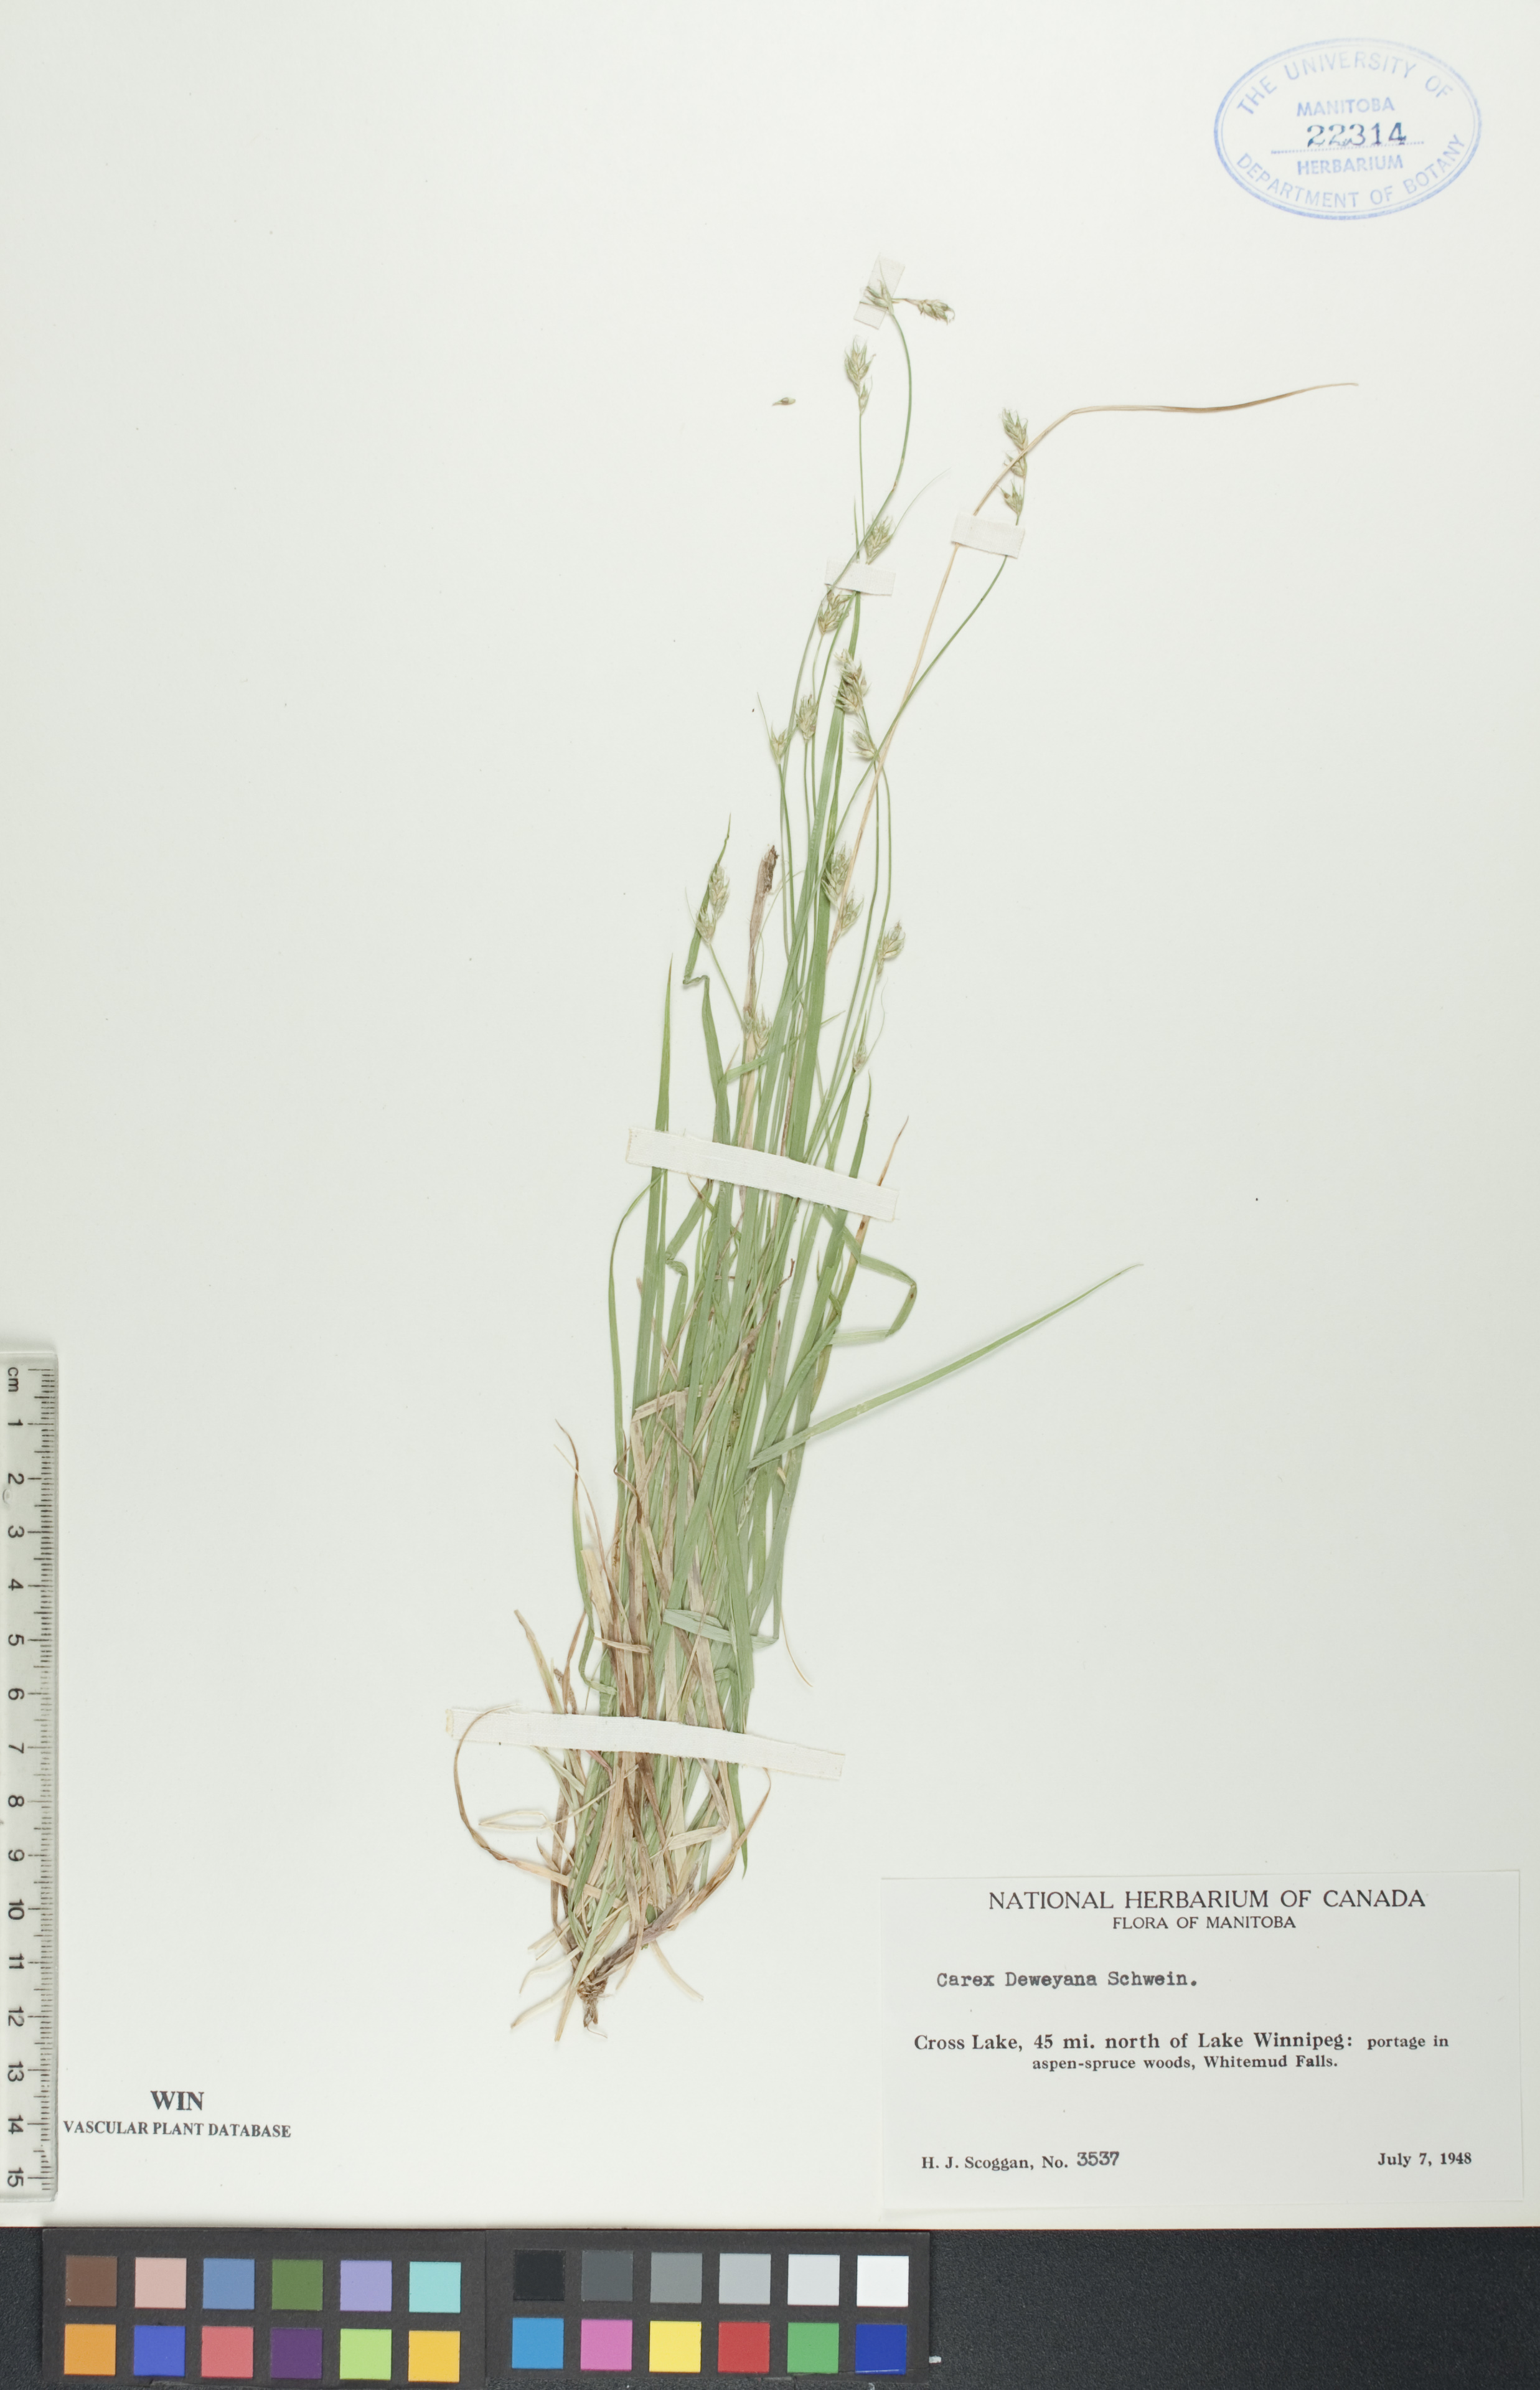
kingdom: Plantae
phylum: Tracheophyta
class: Liliopsida
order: Poales
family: Cyperaceae
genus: Carex
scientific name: Carex deweyana
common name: Dewey's sedge
